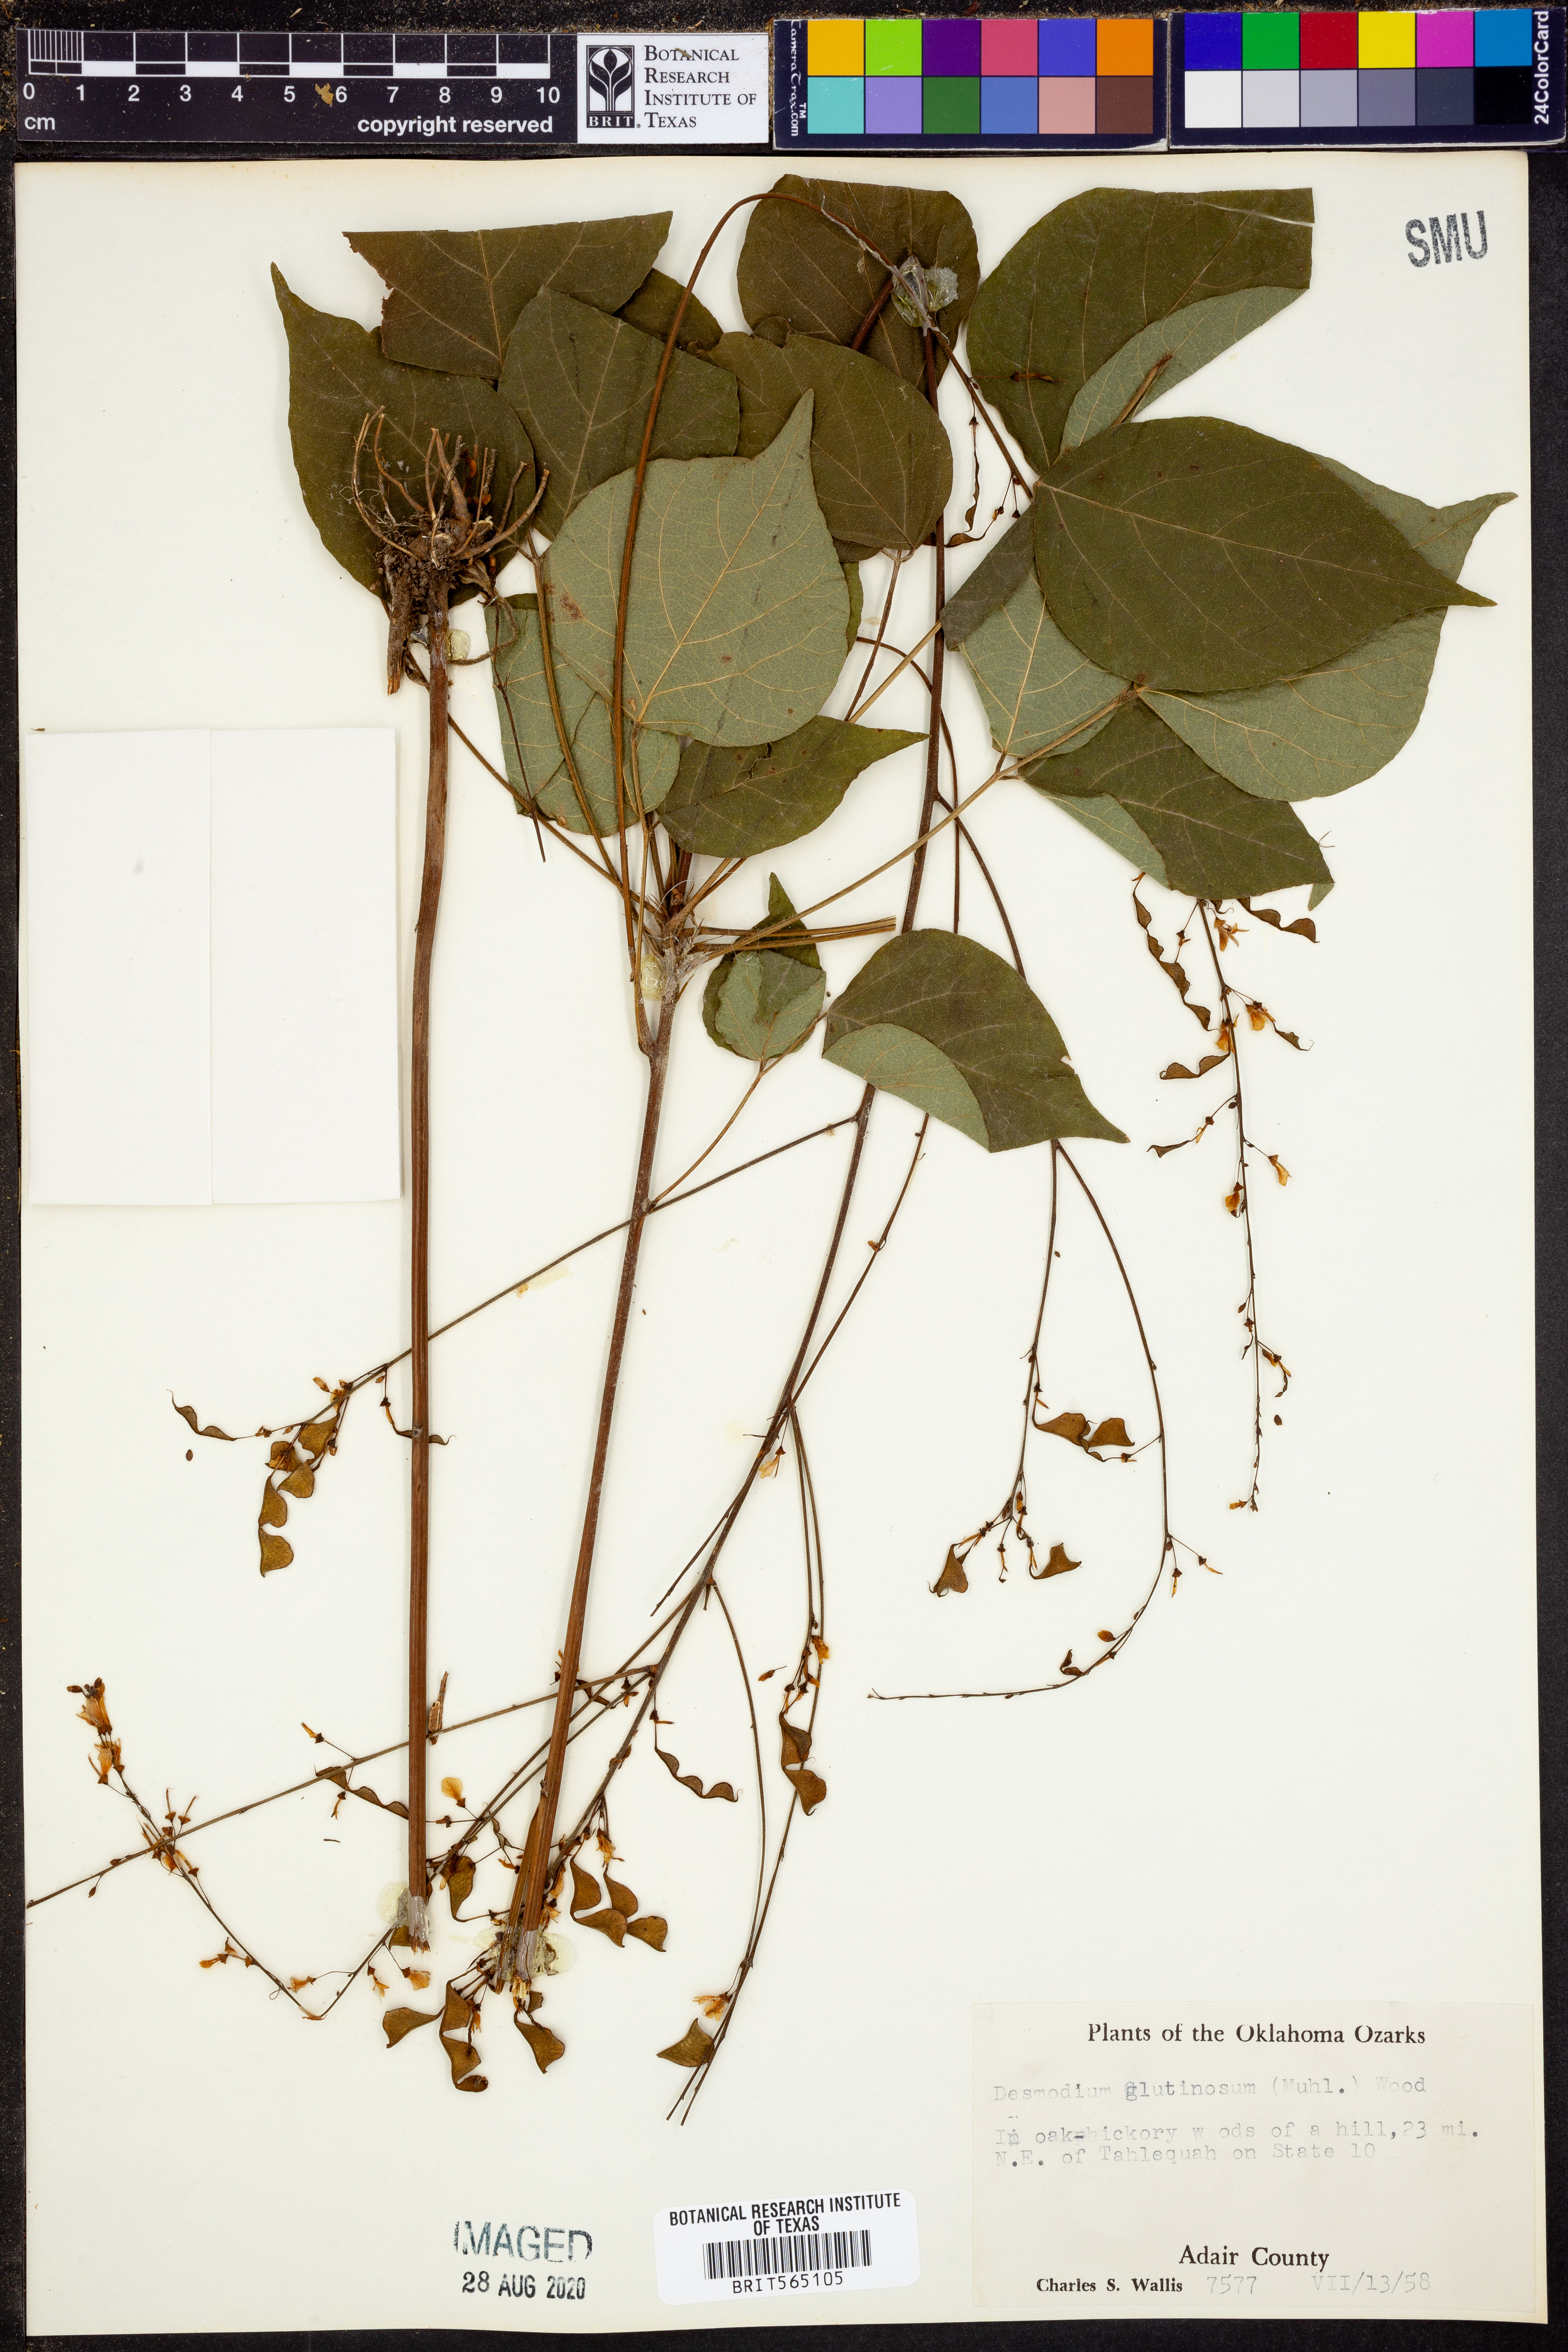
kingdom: Plantae
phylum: Tracheophyta
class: Magnoliopsida
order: Fabales
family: Fabaceae
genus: Hylodesmum
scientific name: Hylodesmum glutinosum
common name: Clustered-leaved tick-trefoil
